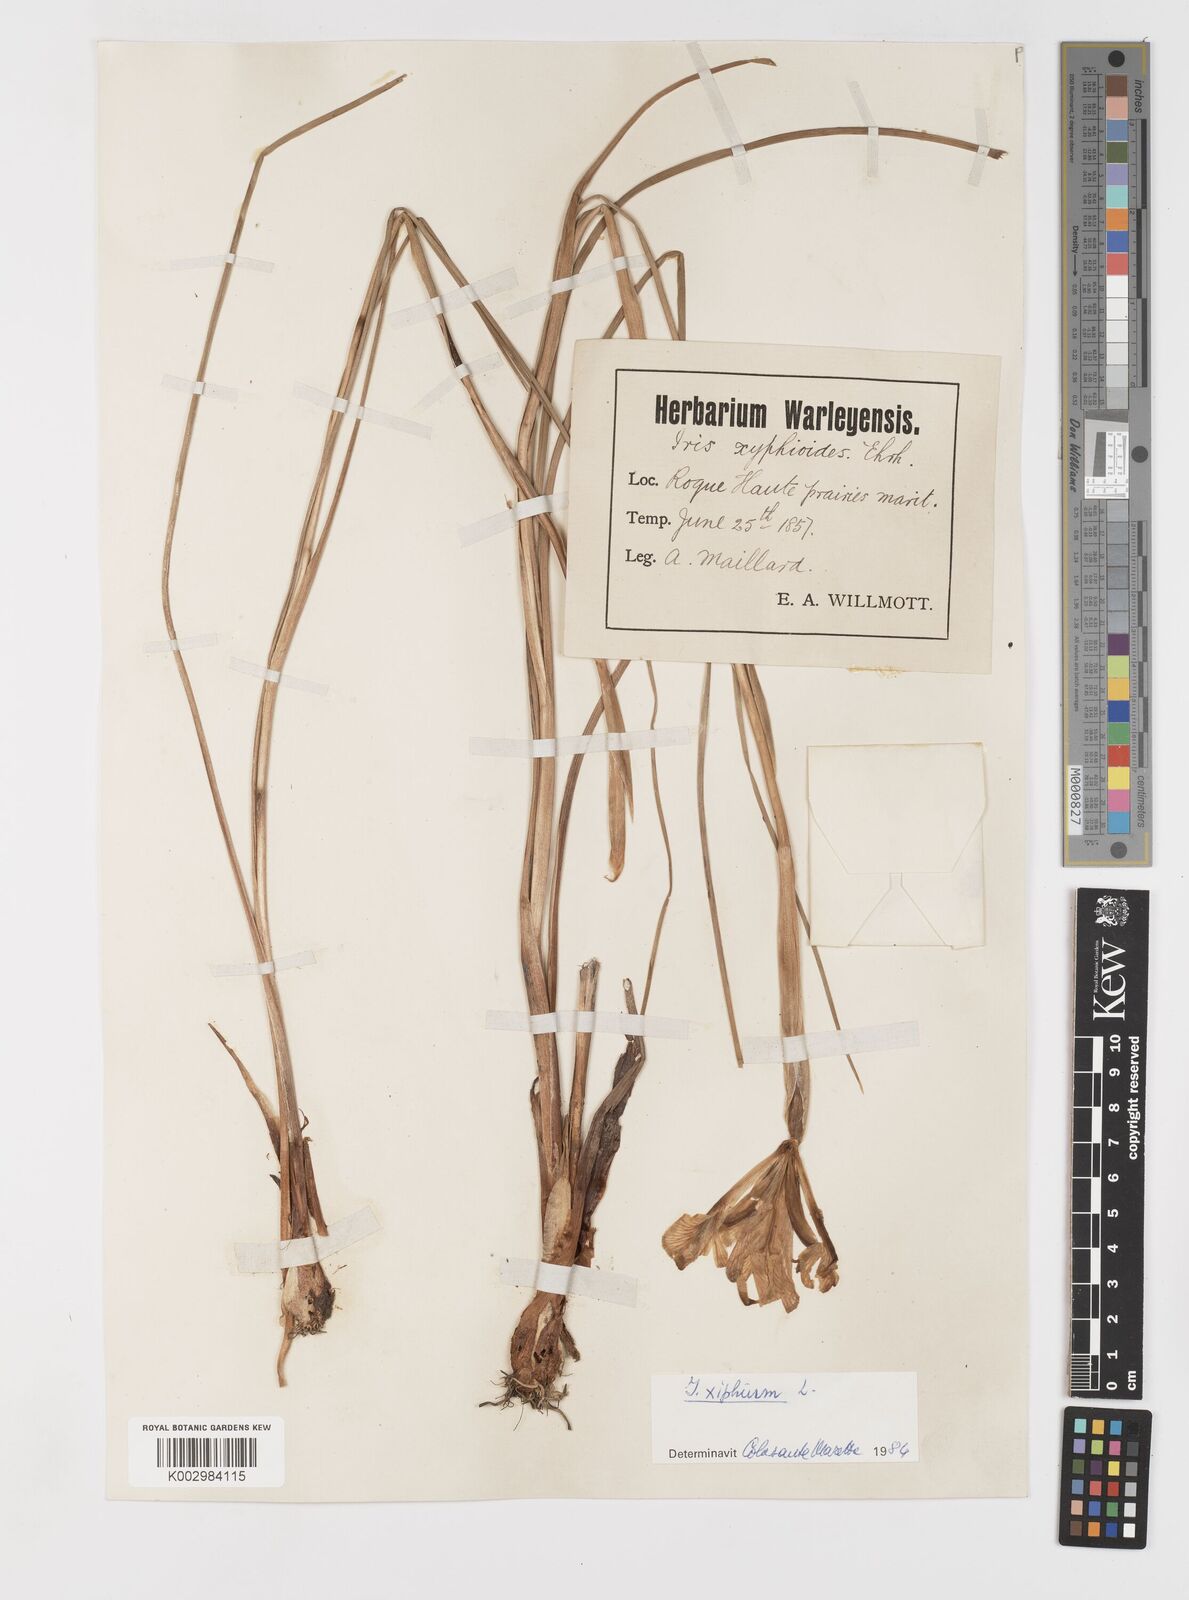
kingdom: Plantae
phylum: Tracheophyta
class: Liliopsida
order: Asparagales
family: Iridaceae
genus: Iris
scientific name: Iris xiphium
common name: Spanish iris
